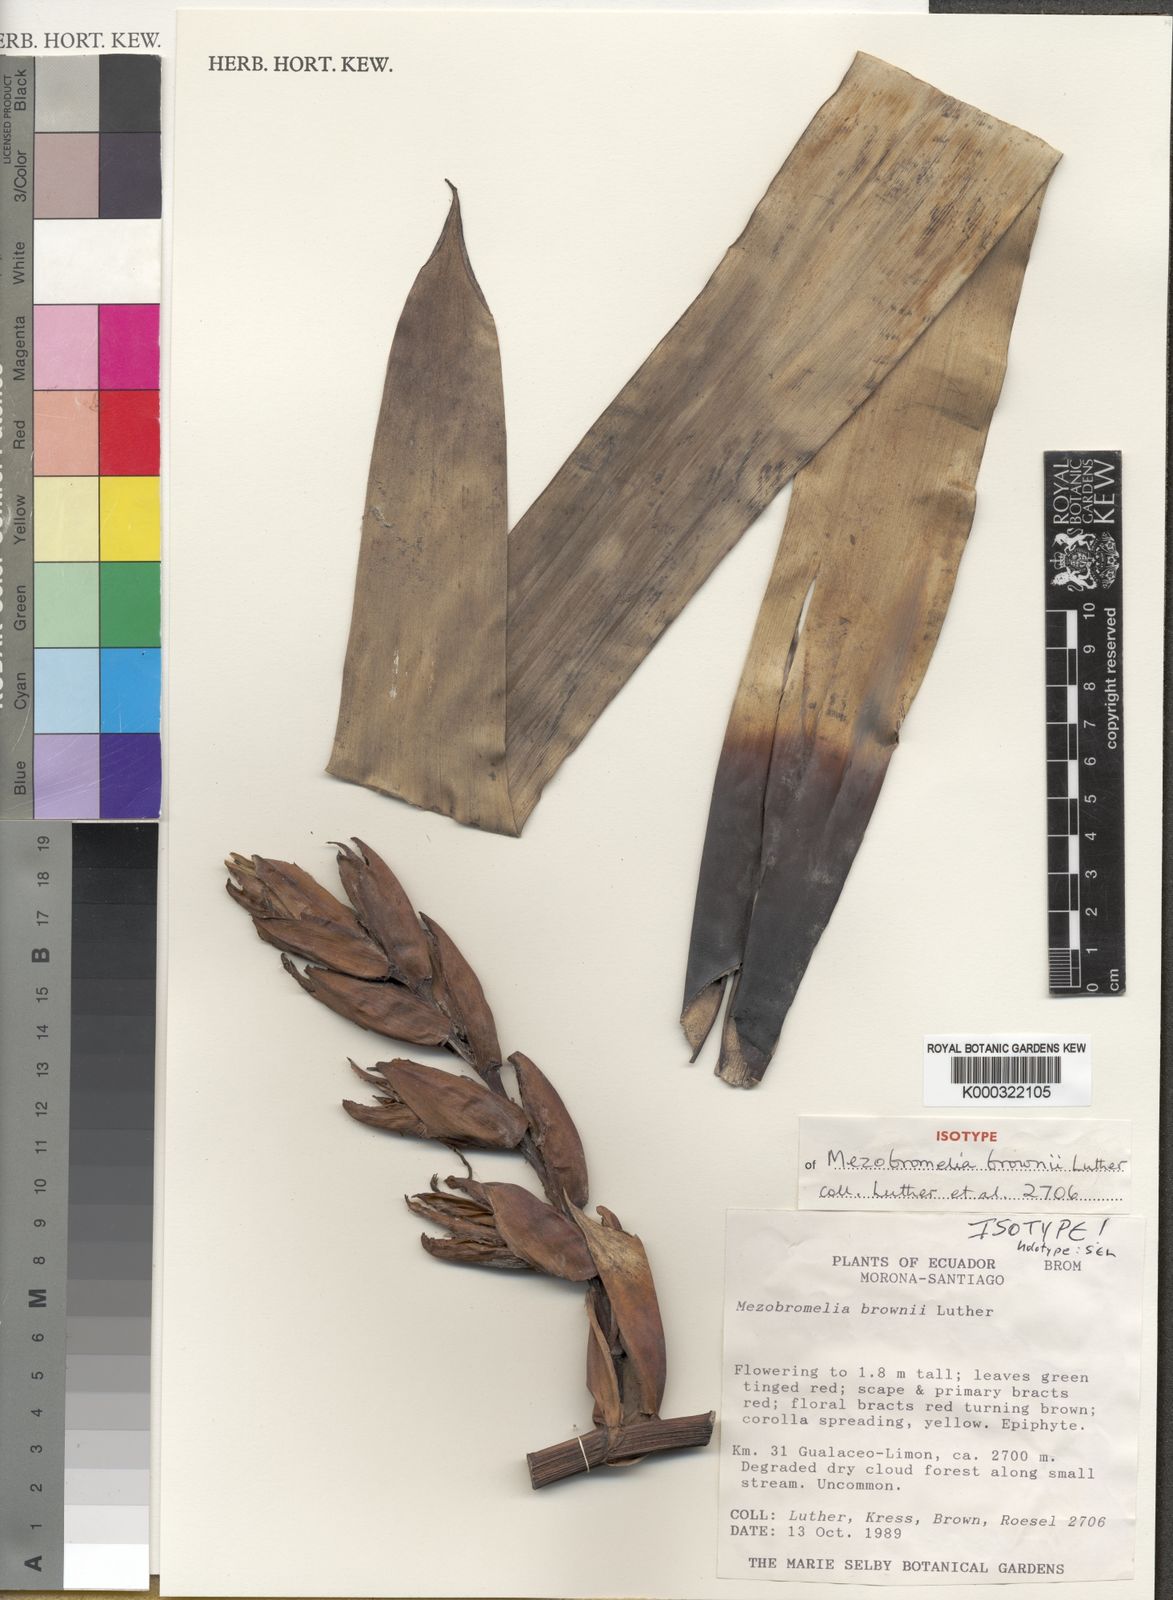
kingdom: Plantae
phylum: Tracheophyta
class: Liliopsida
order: Poales
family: Bromeliaceae
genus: Gregbrownia
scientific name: Gregbrownia brownii
